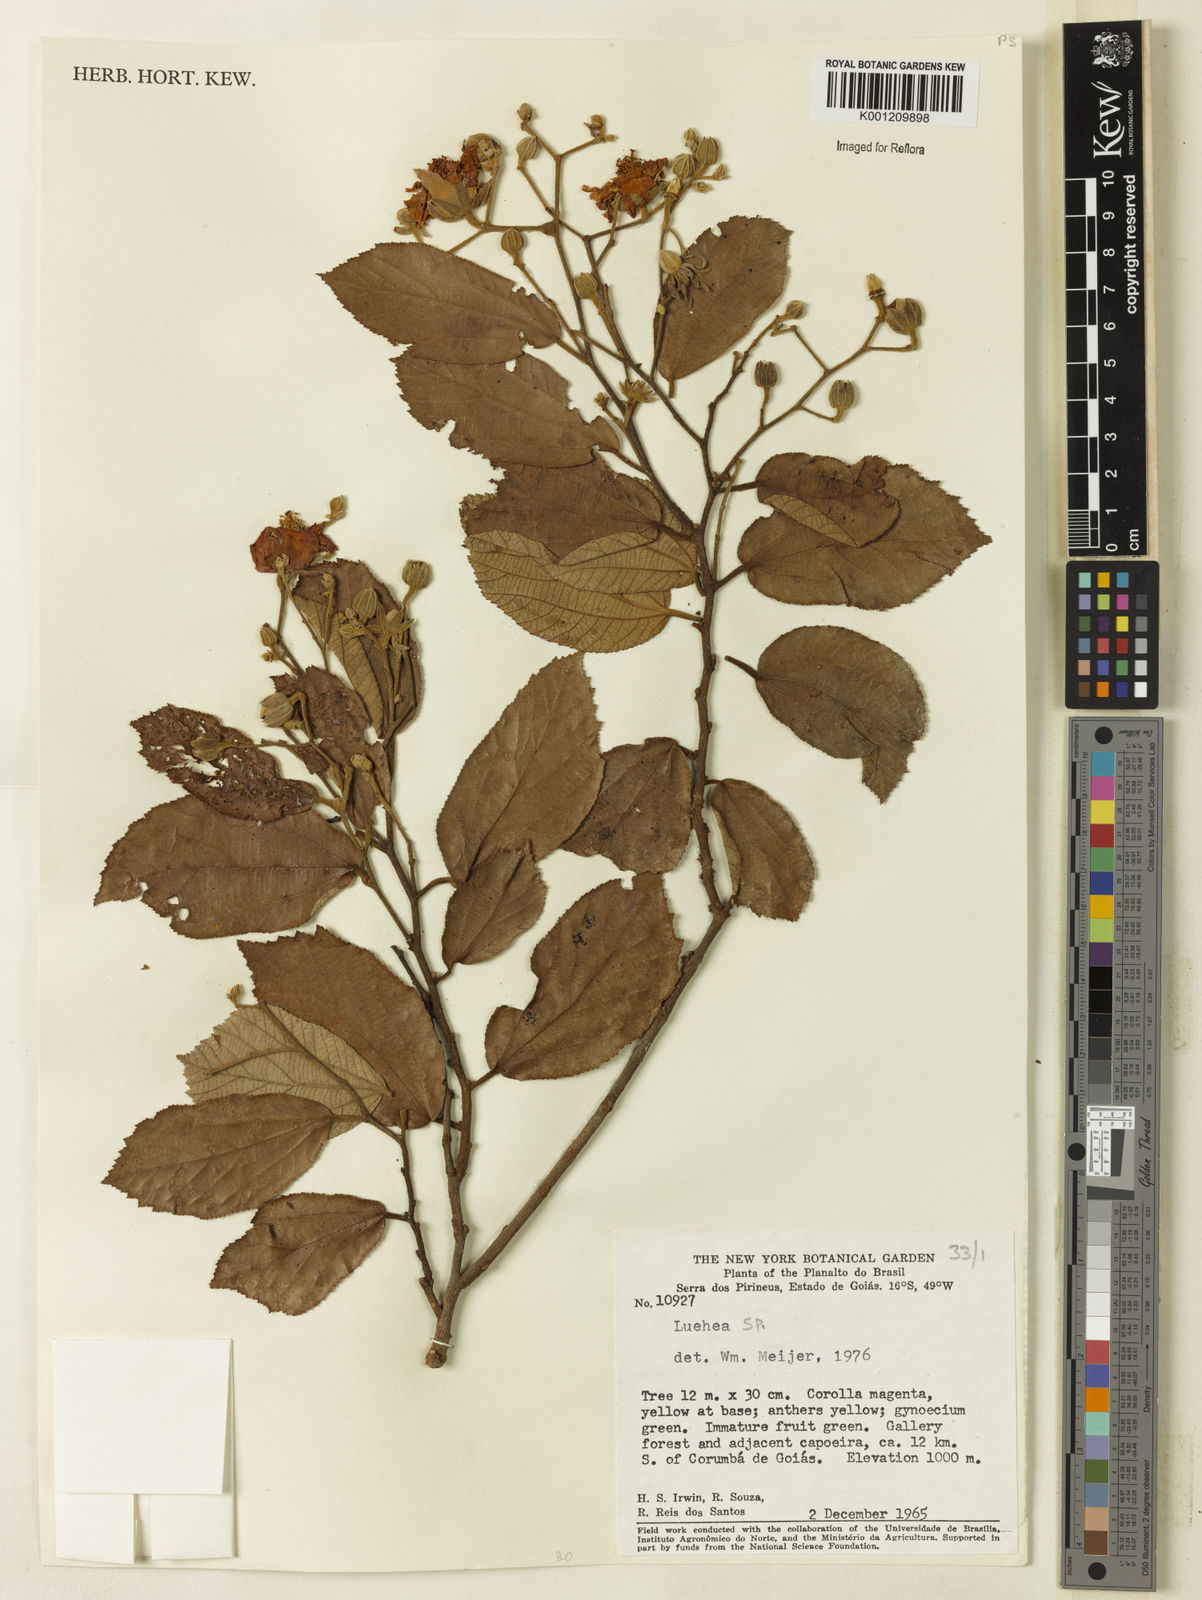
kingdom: Plantae
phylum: Tracheophyta
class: Magnoliopsida
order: Malvales
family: Malvaceae
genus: Luehea
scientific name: Luehea
